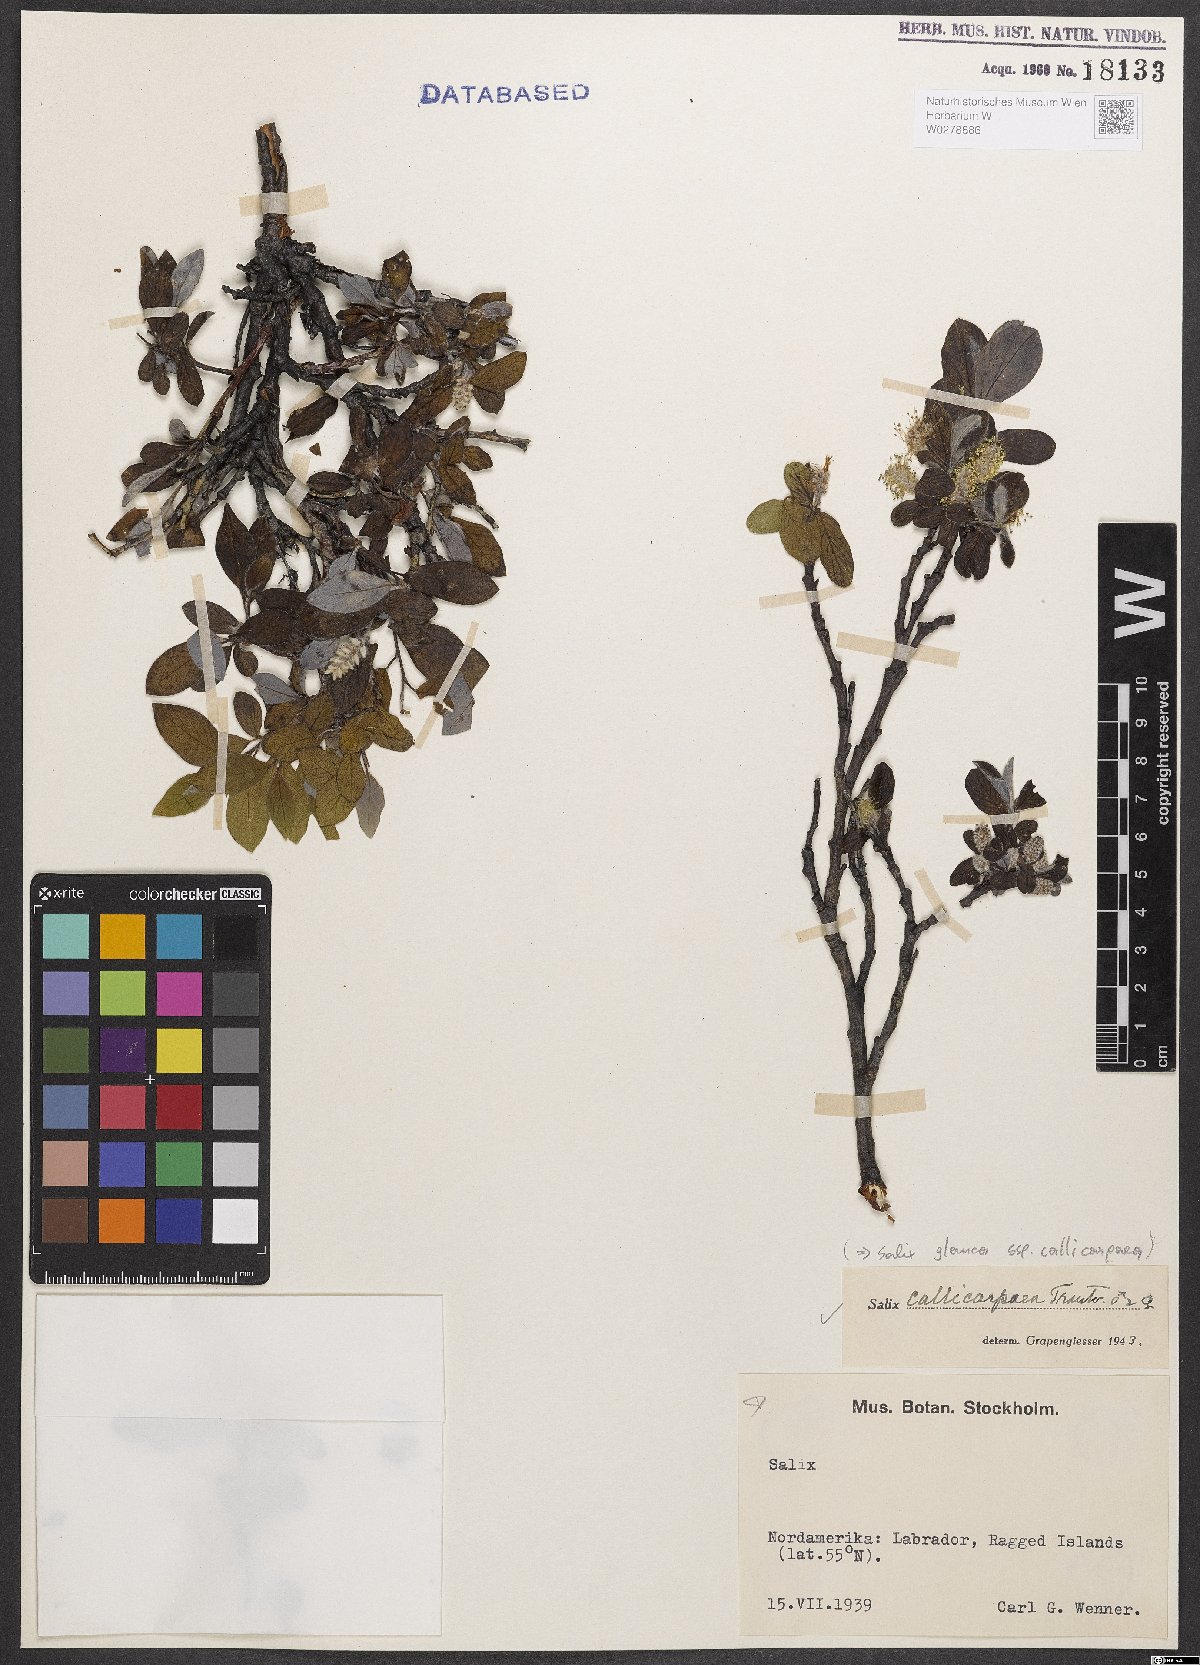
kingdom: Plantae
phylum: Tracheophyta
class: Magnoliopsida
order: Malpighiales
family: Salicaceae
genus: Salix
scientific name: Salix glauca
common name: Glaucous willow
